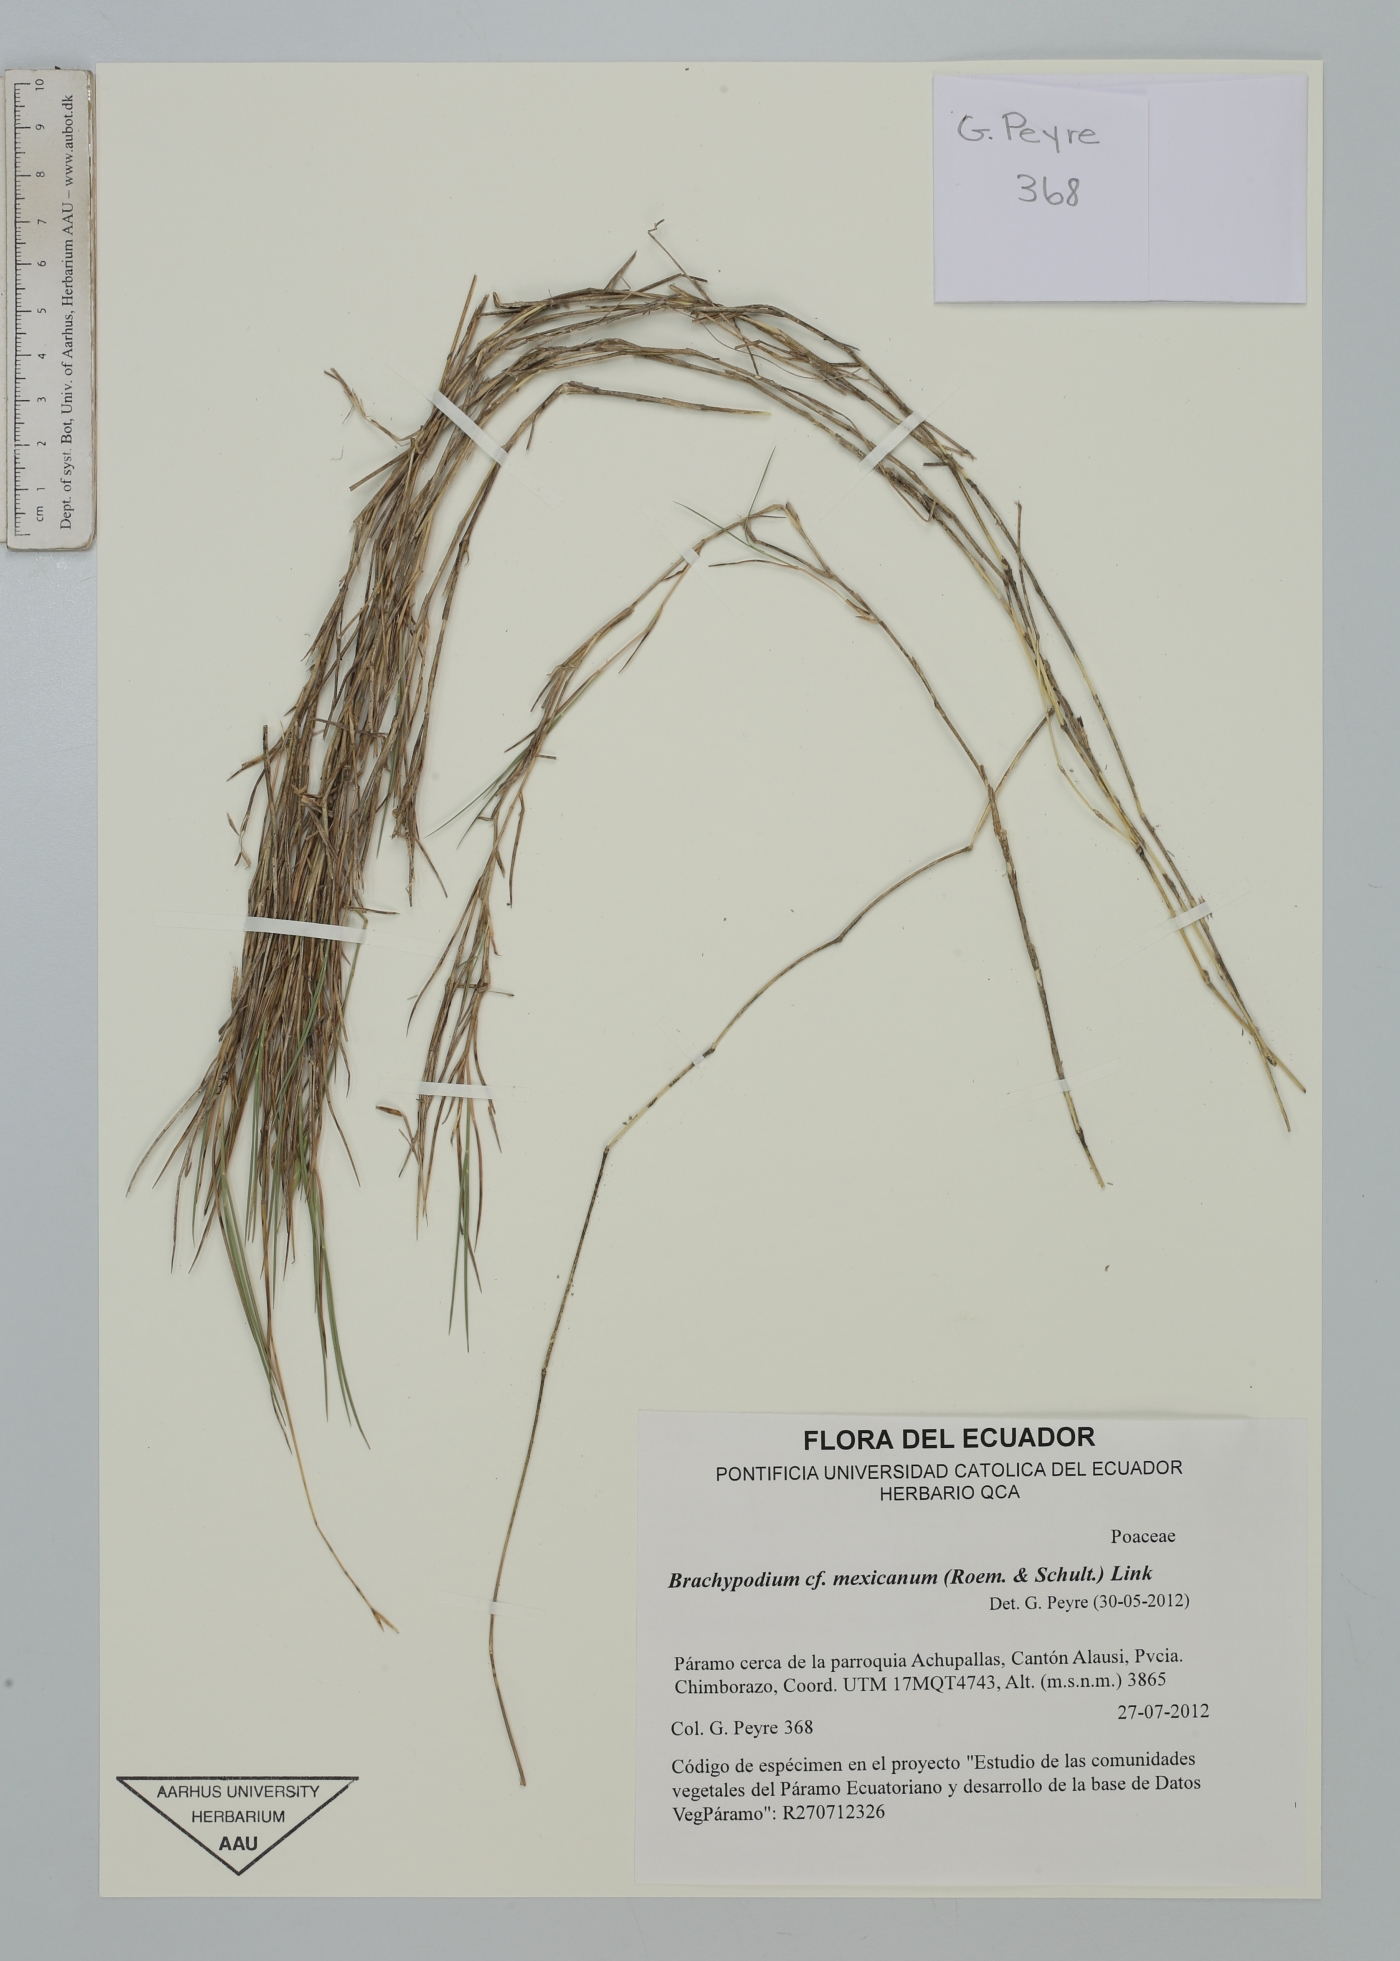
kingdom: Plantae
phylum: Tracheophyta
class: Liliopsida
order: Poales
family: Poaceae
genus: Brachypodium
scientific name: Brachypodium mexicanum
